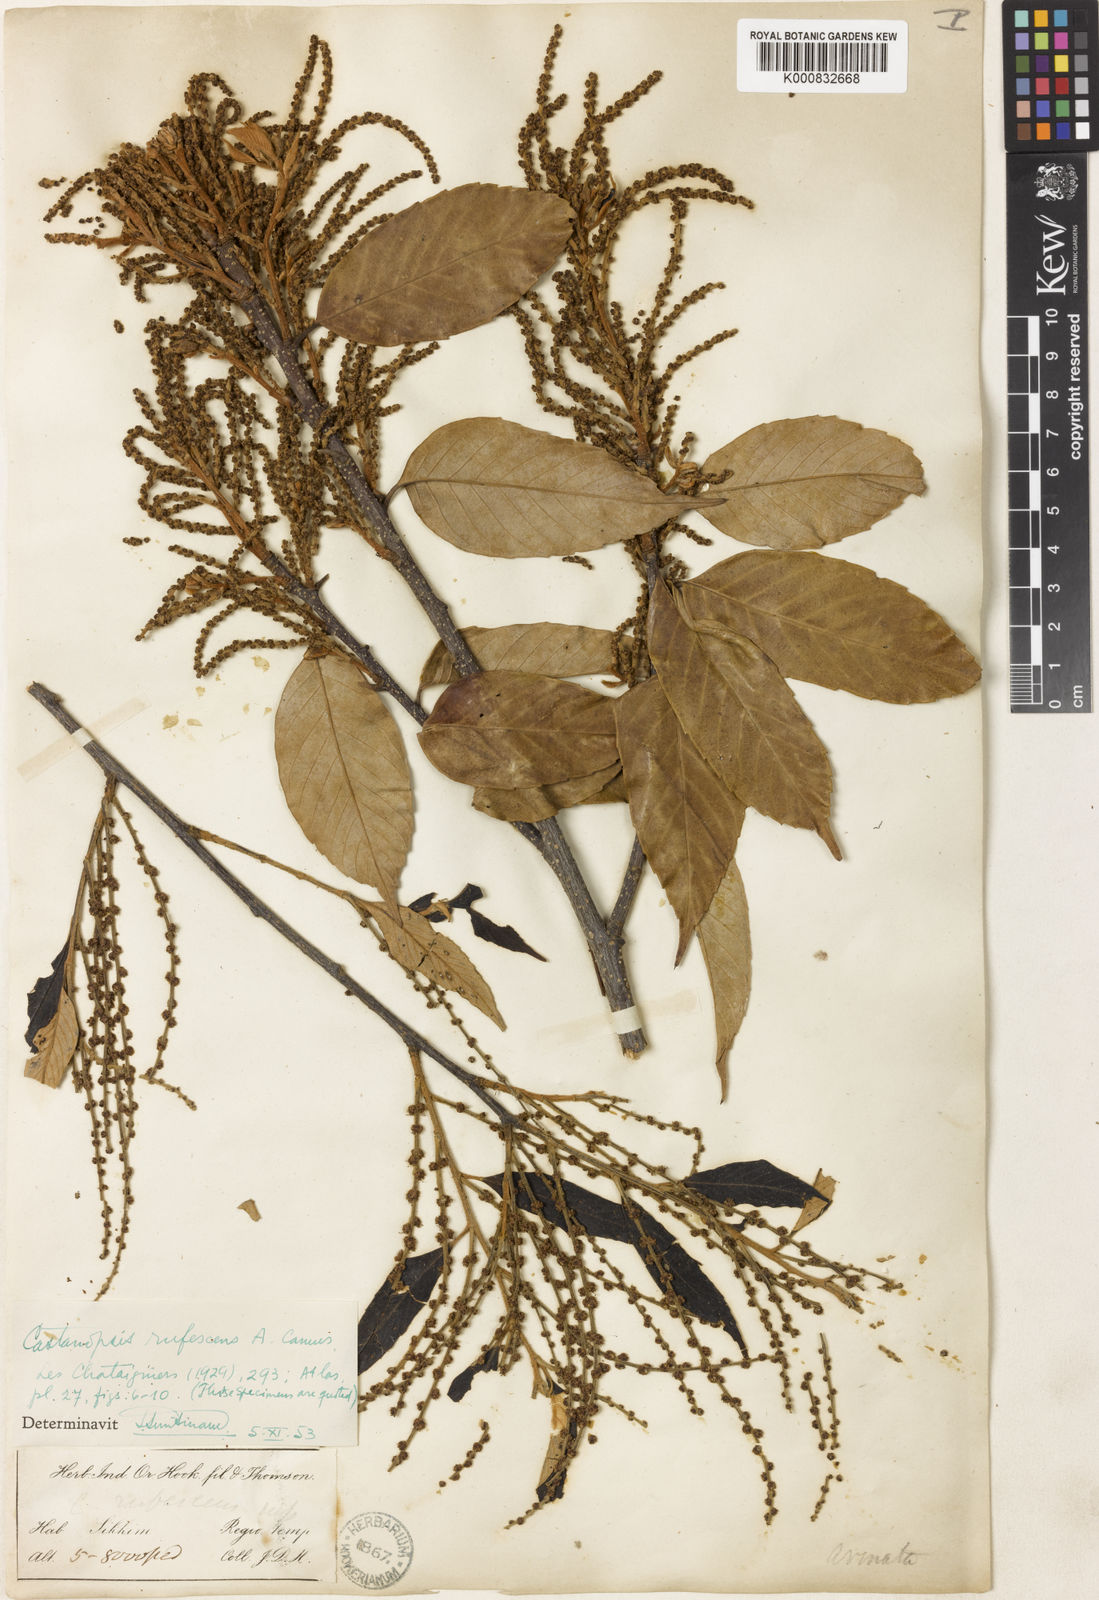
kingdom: Plantae
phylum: Tracheophyta
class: Magnoliopsida
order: Fagales
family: Fagaceae
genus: Castanopsis
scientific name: Castanopsis purpurella
